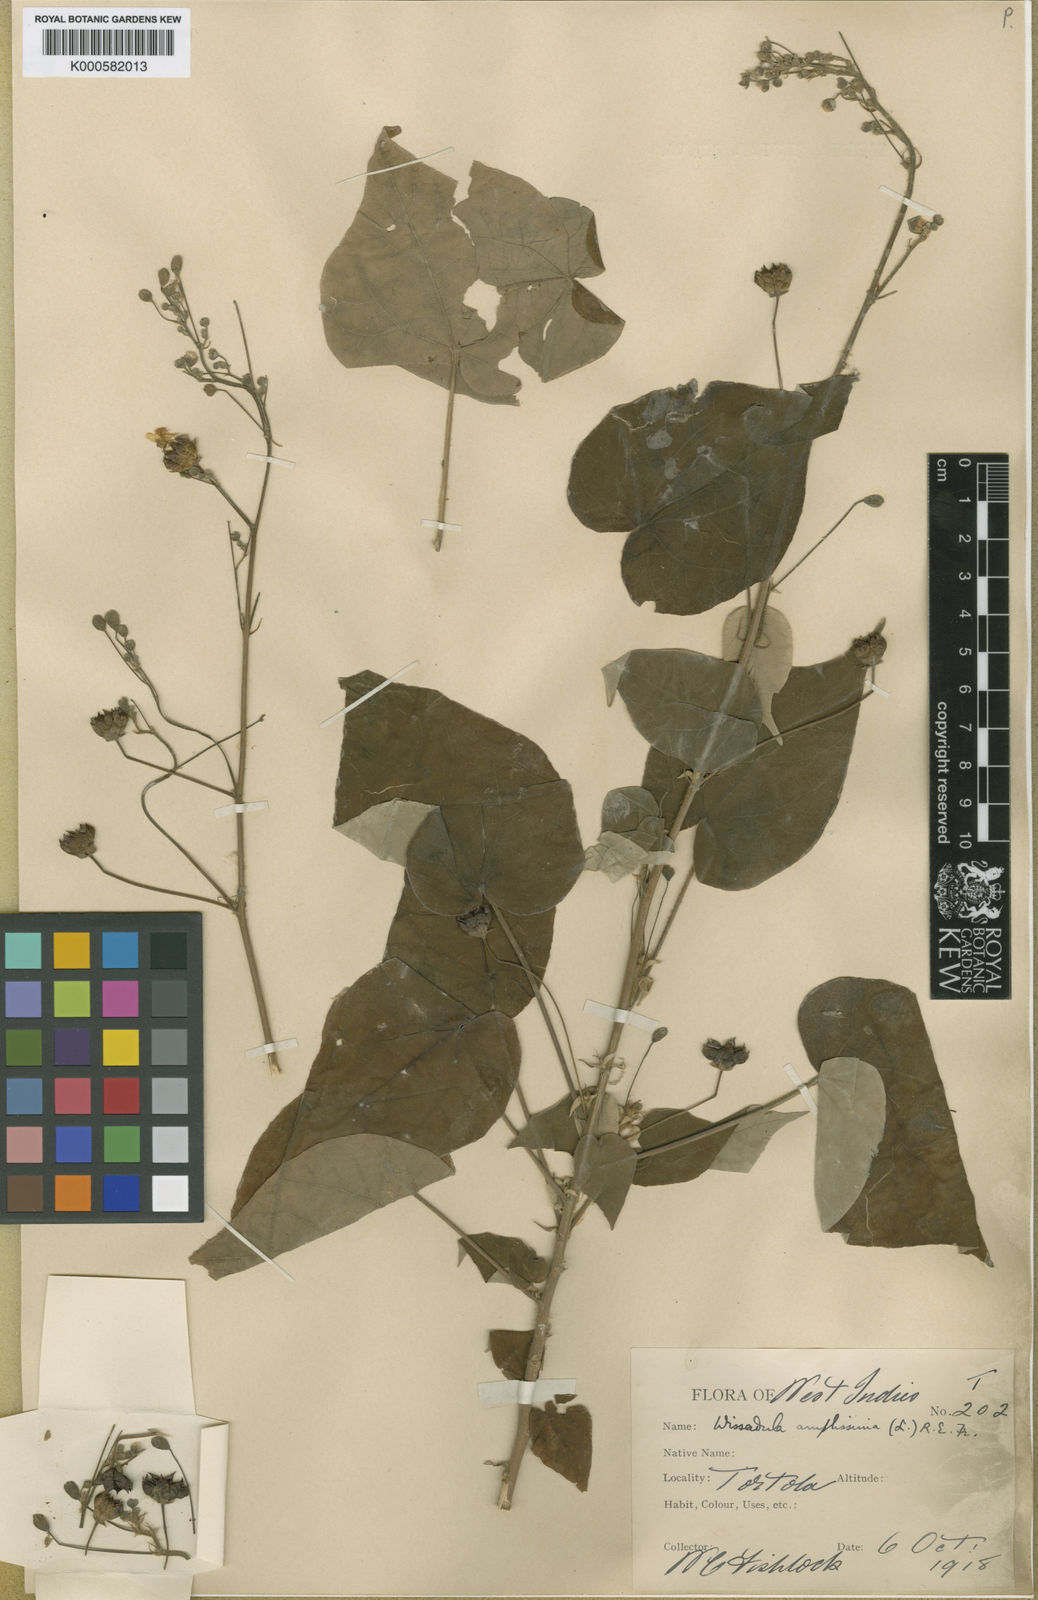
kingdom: Plantae
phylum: Tracheophyta
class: Magnoliopsida
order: Malvales
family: Malvaceae
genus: Wissadula
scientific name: Wissadula amplissima
